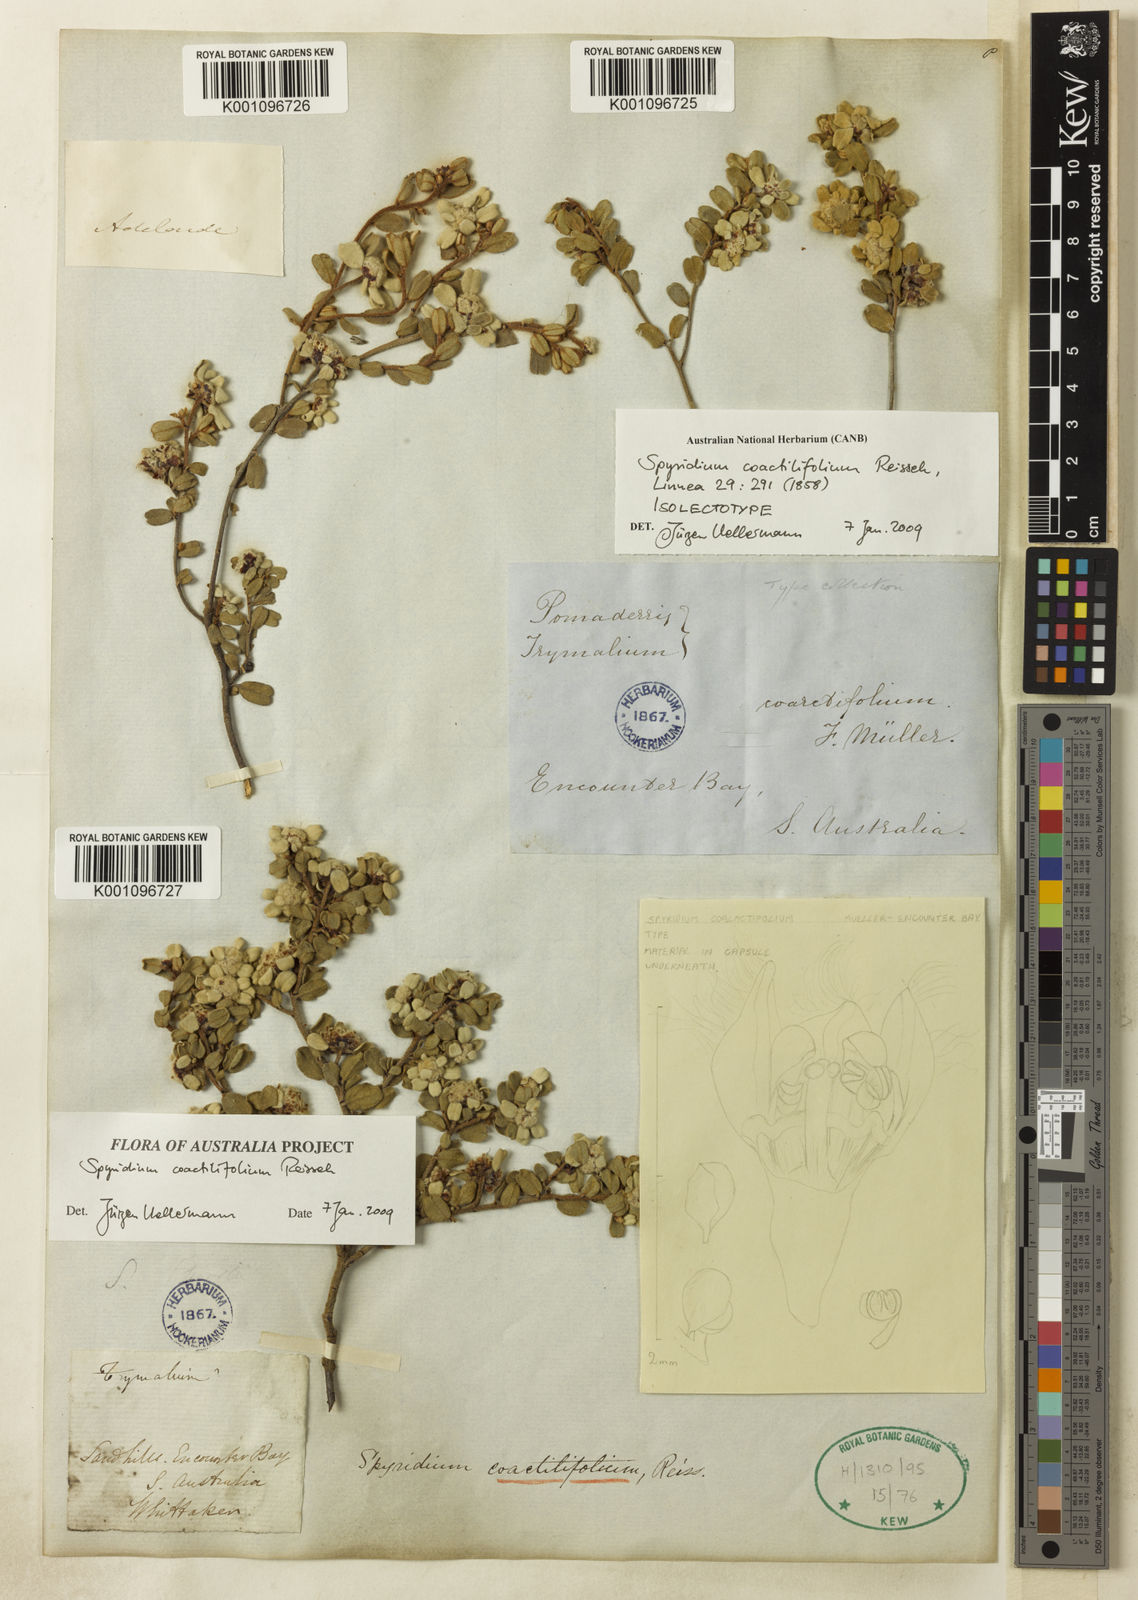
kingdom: Plantae
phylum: Tracheophyta
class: Magnoliopsida
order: Rosales
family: Rhamnaceae
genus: Spyridium
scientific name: Spyridium coactilifolium
